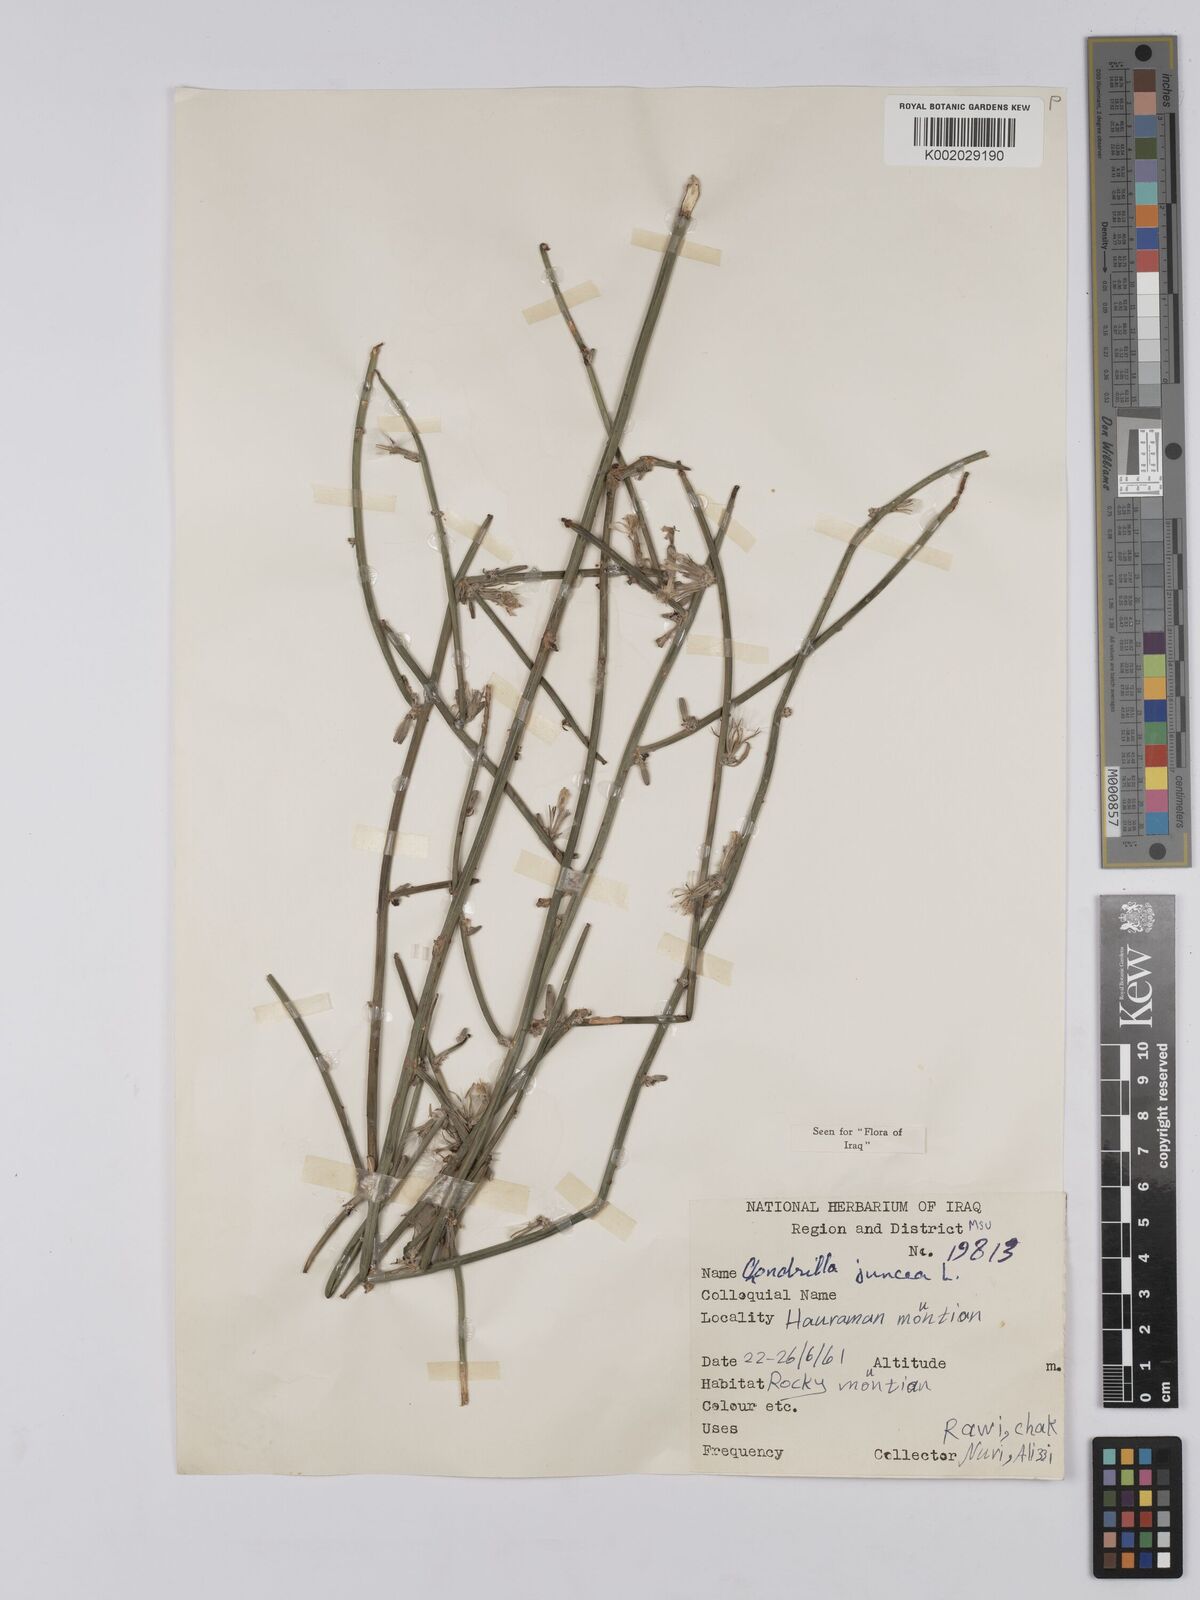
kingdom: Plantae
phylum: Tracheophyta
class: Magnoliopsida
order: Asterales
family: Asteraceae
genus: Chondrilla
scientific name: Chondrilla juncea
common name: Skeleton weed
